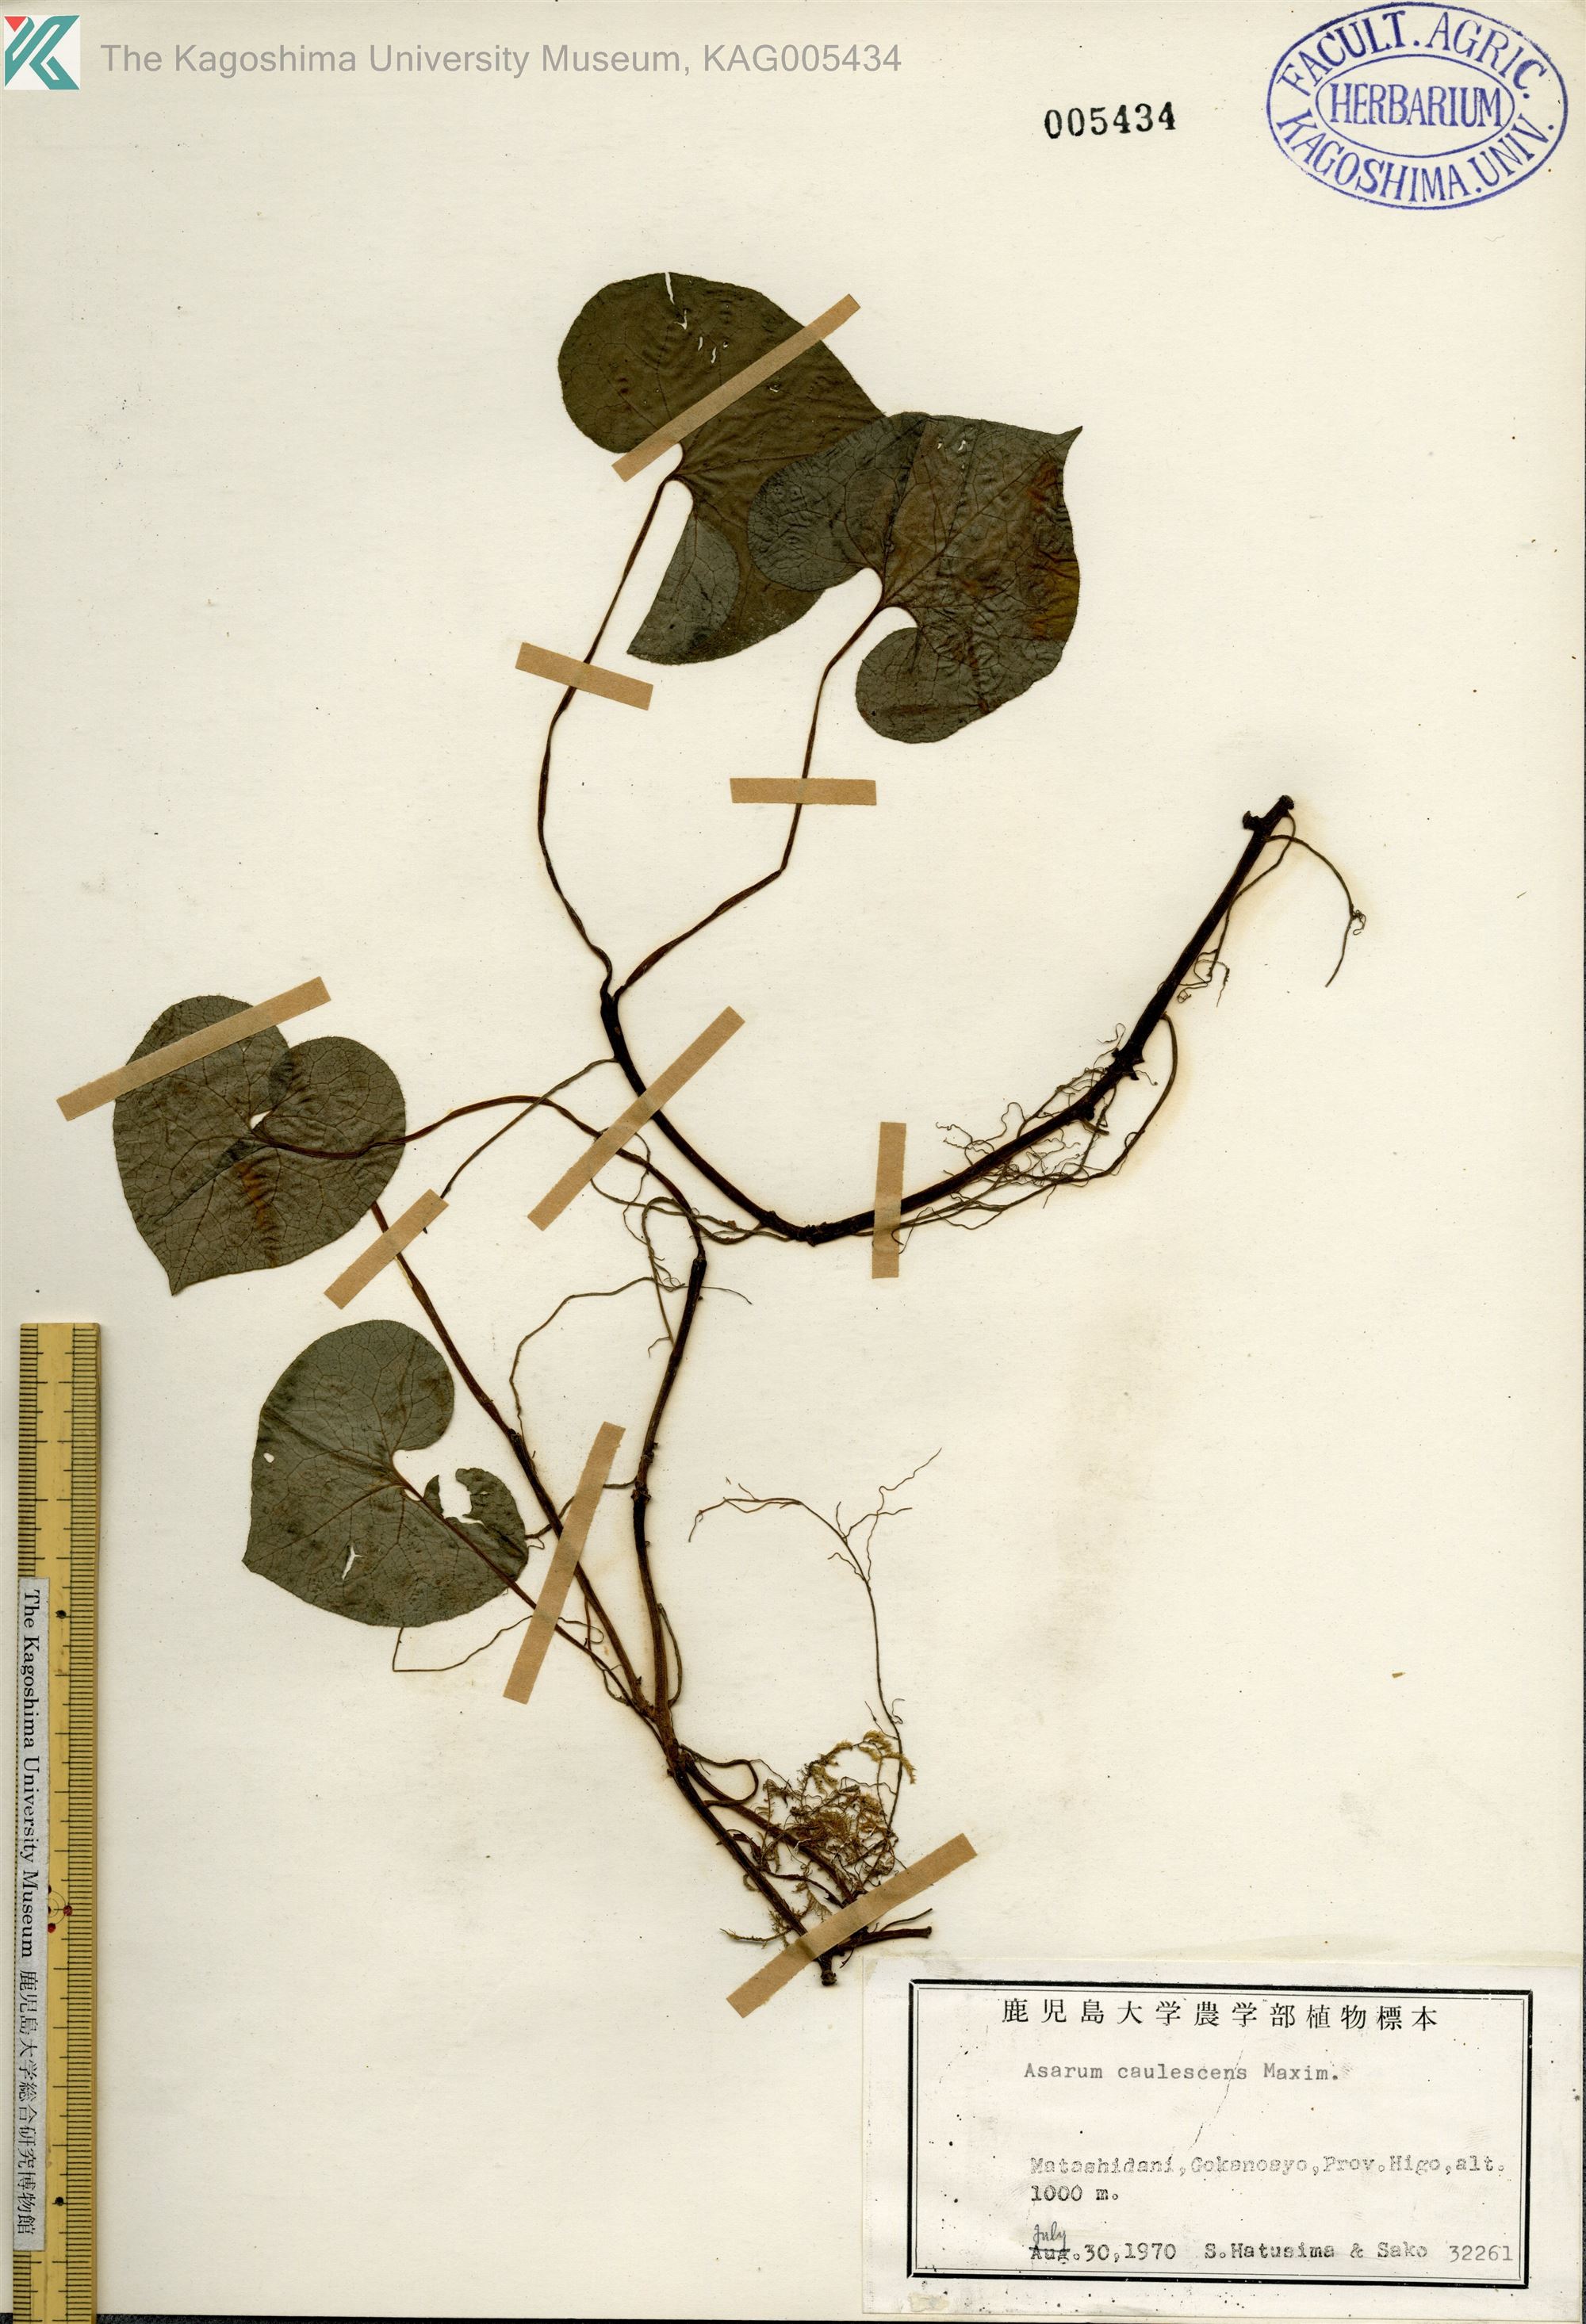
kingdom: Plantae
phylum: Tracheophyta
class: Magnoliopsida
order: Piperales
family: Aristolochiaceae
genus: Asarum
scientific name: Asarum caulescens
